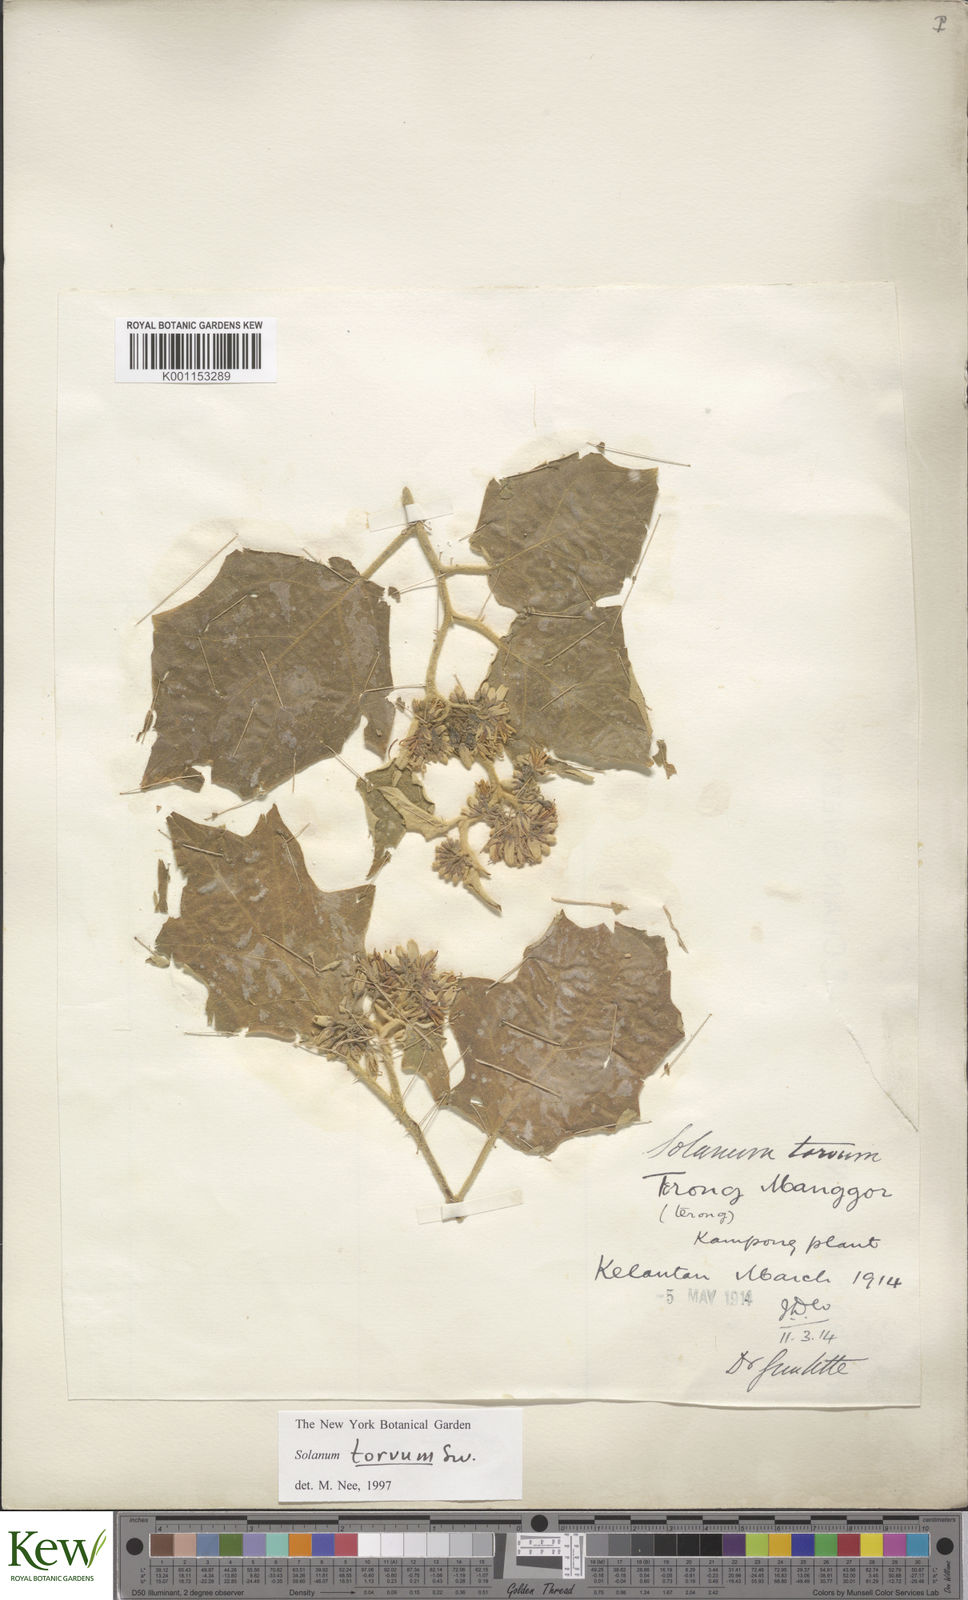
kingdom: Plantae
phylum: Tracheophyta
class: Magnoliopsida
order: Solanales
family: Solanaceae
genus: Solanum
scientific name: Solanum torvum
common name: Turkey berry
